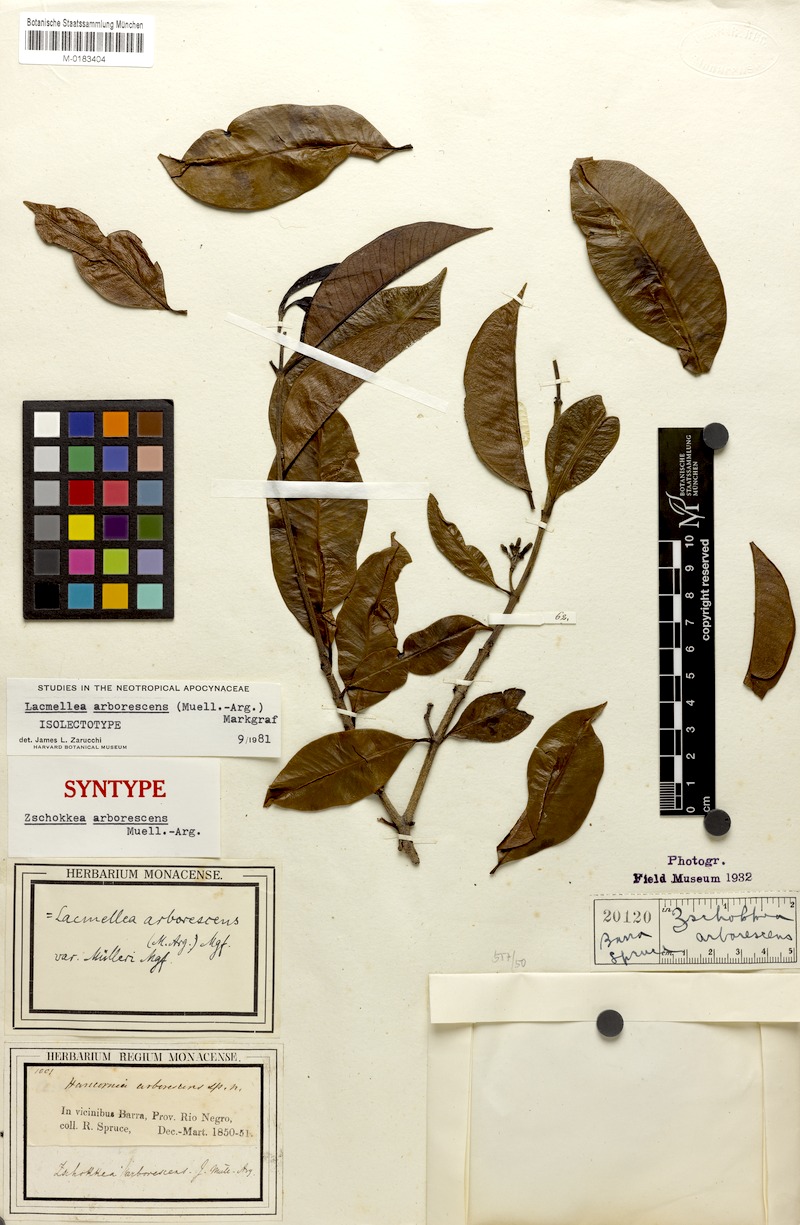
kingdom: Plantae
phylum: Tracheophyta
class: Magnoliopsida
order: Gentianales
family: Apocynaceae
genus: Lacmellea
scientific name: Lacmellea arborescens
